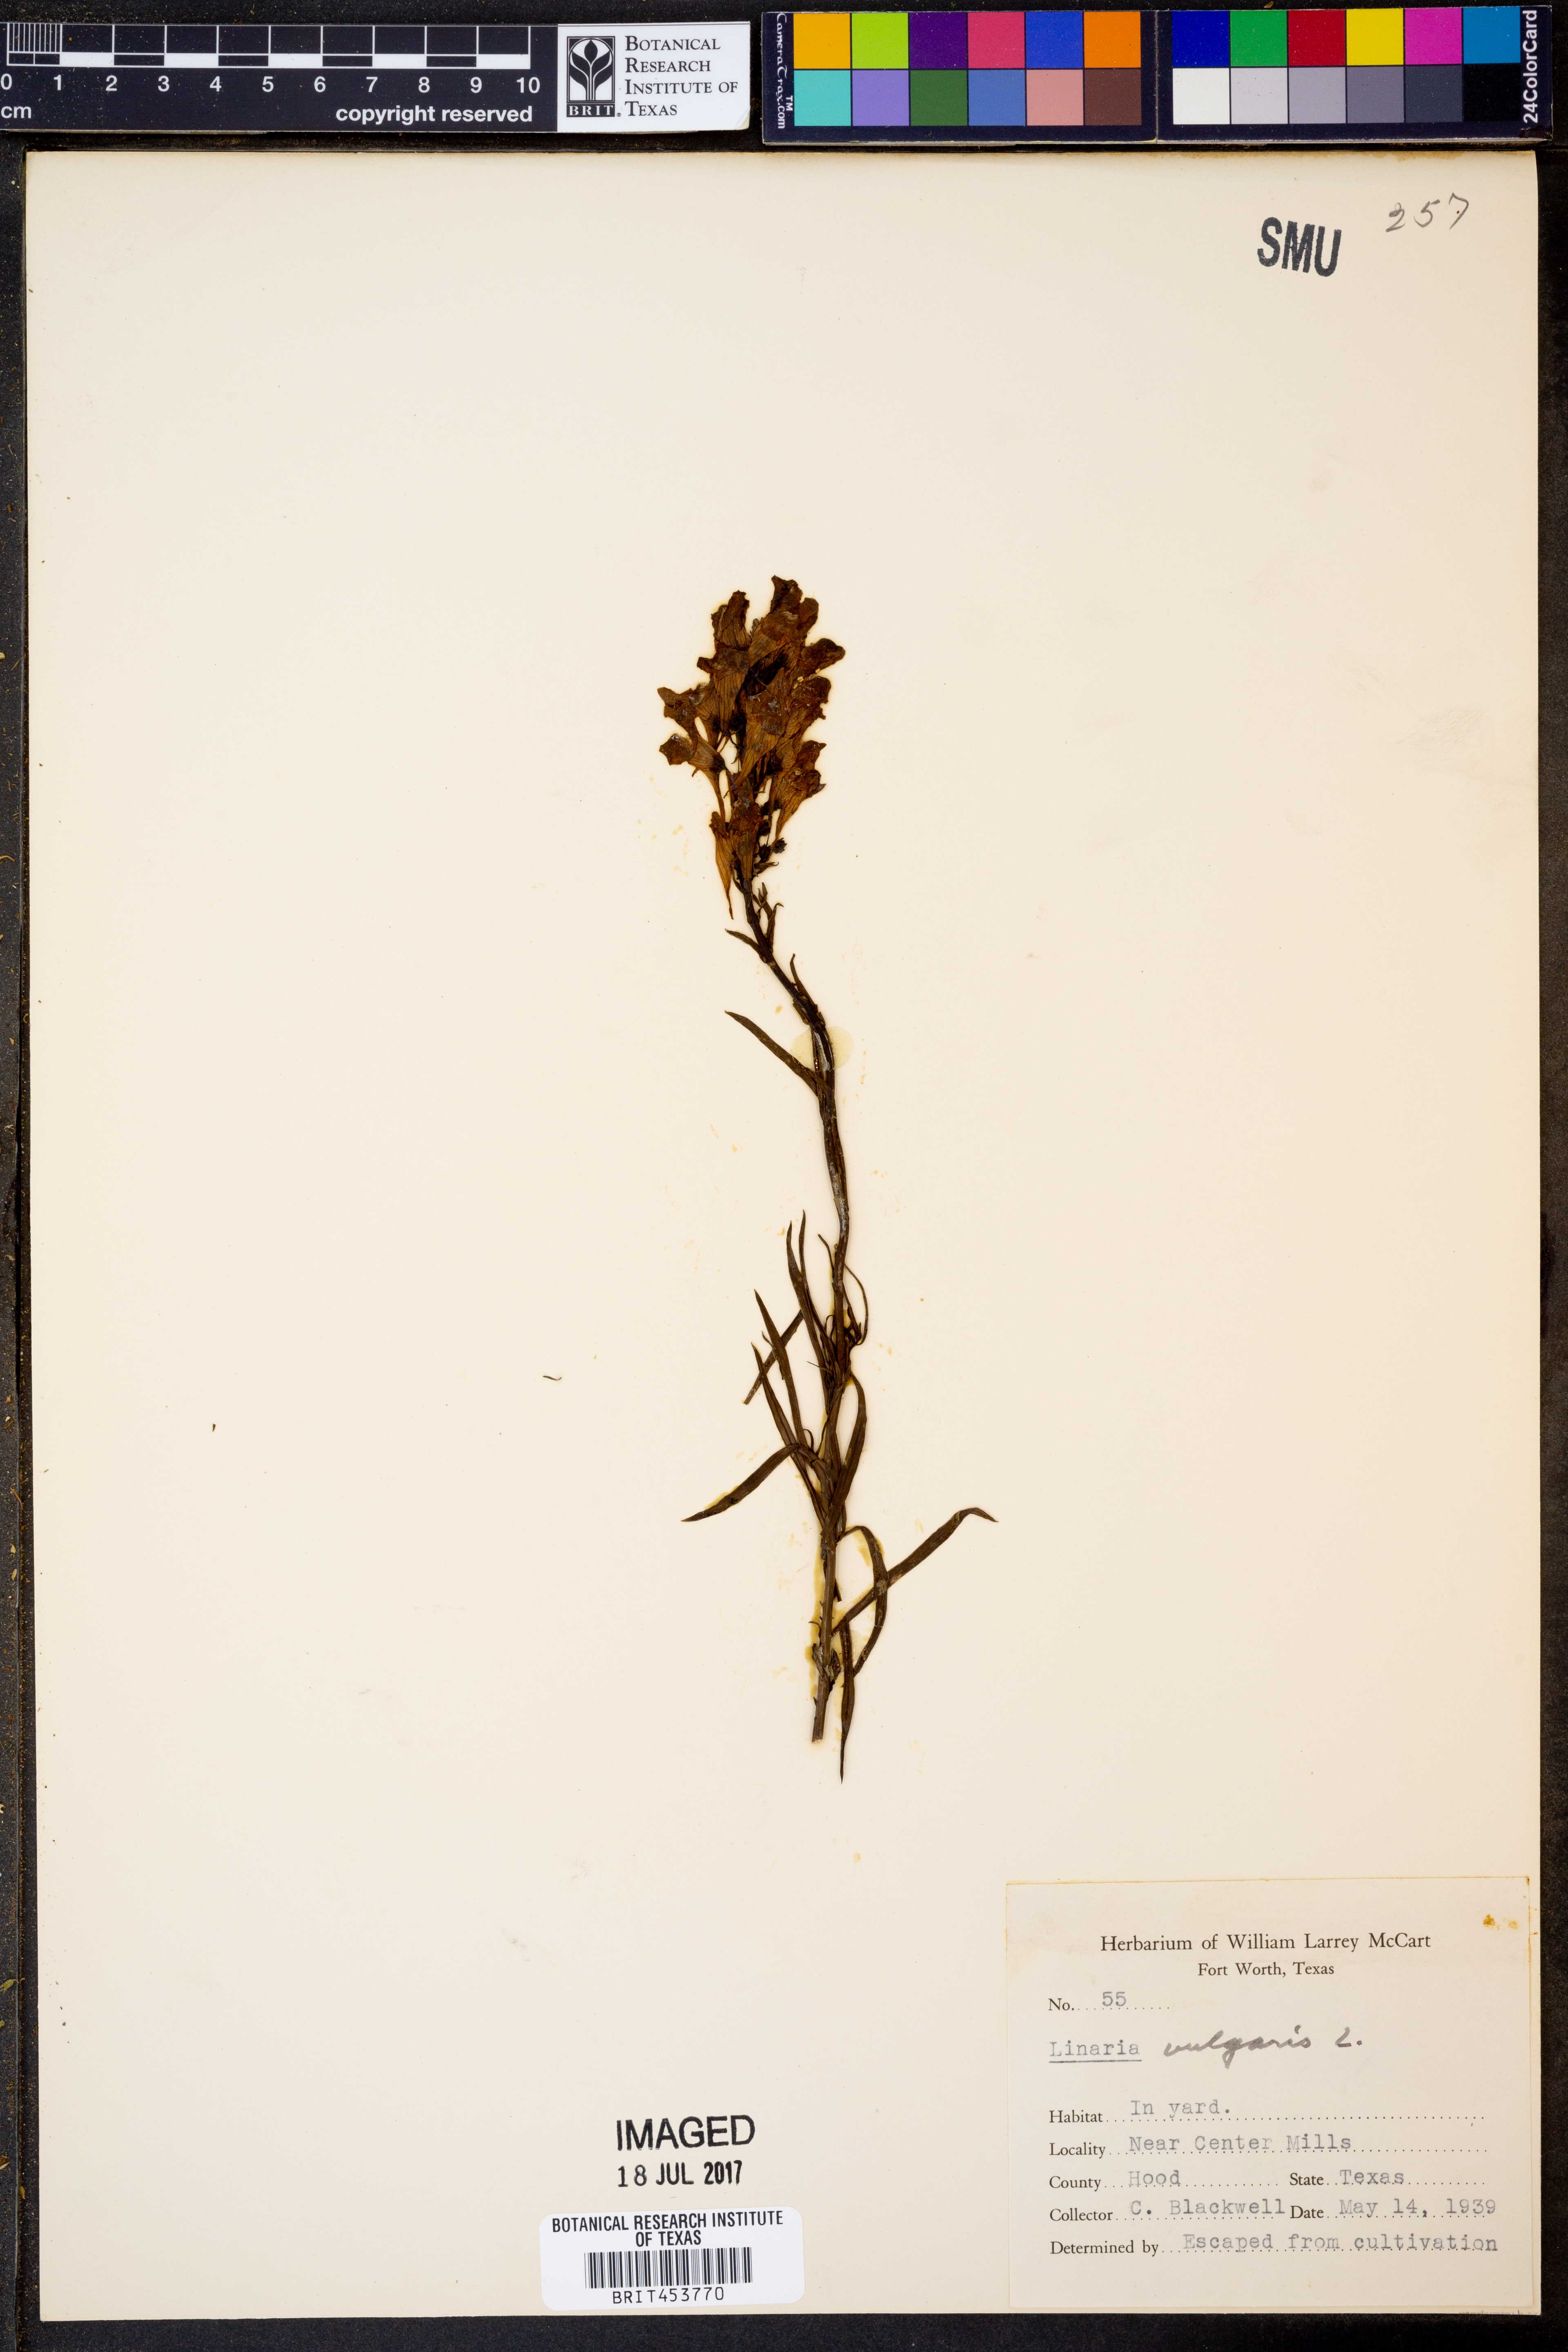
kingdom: Plantae
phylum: Tracheophyta
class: Magnoliopsida
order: Lamiales
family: Plantaginaceae
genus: Linaria
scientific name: Linaria vulgaris
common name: Butter and eggs
